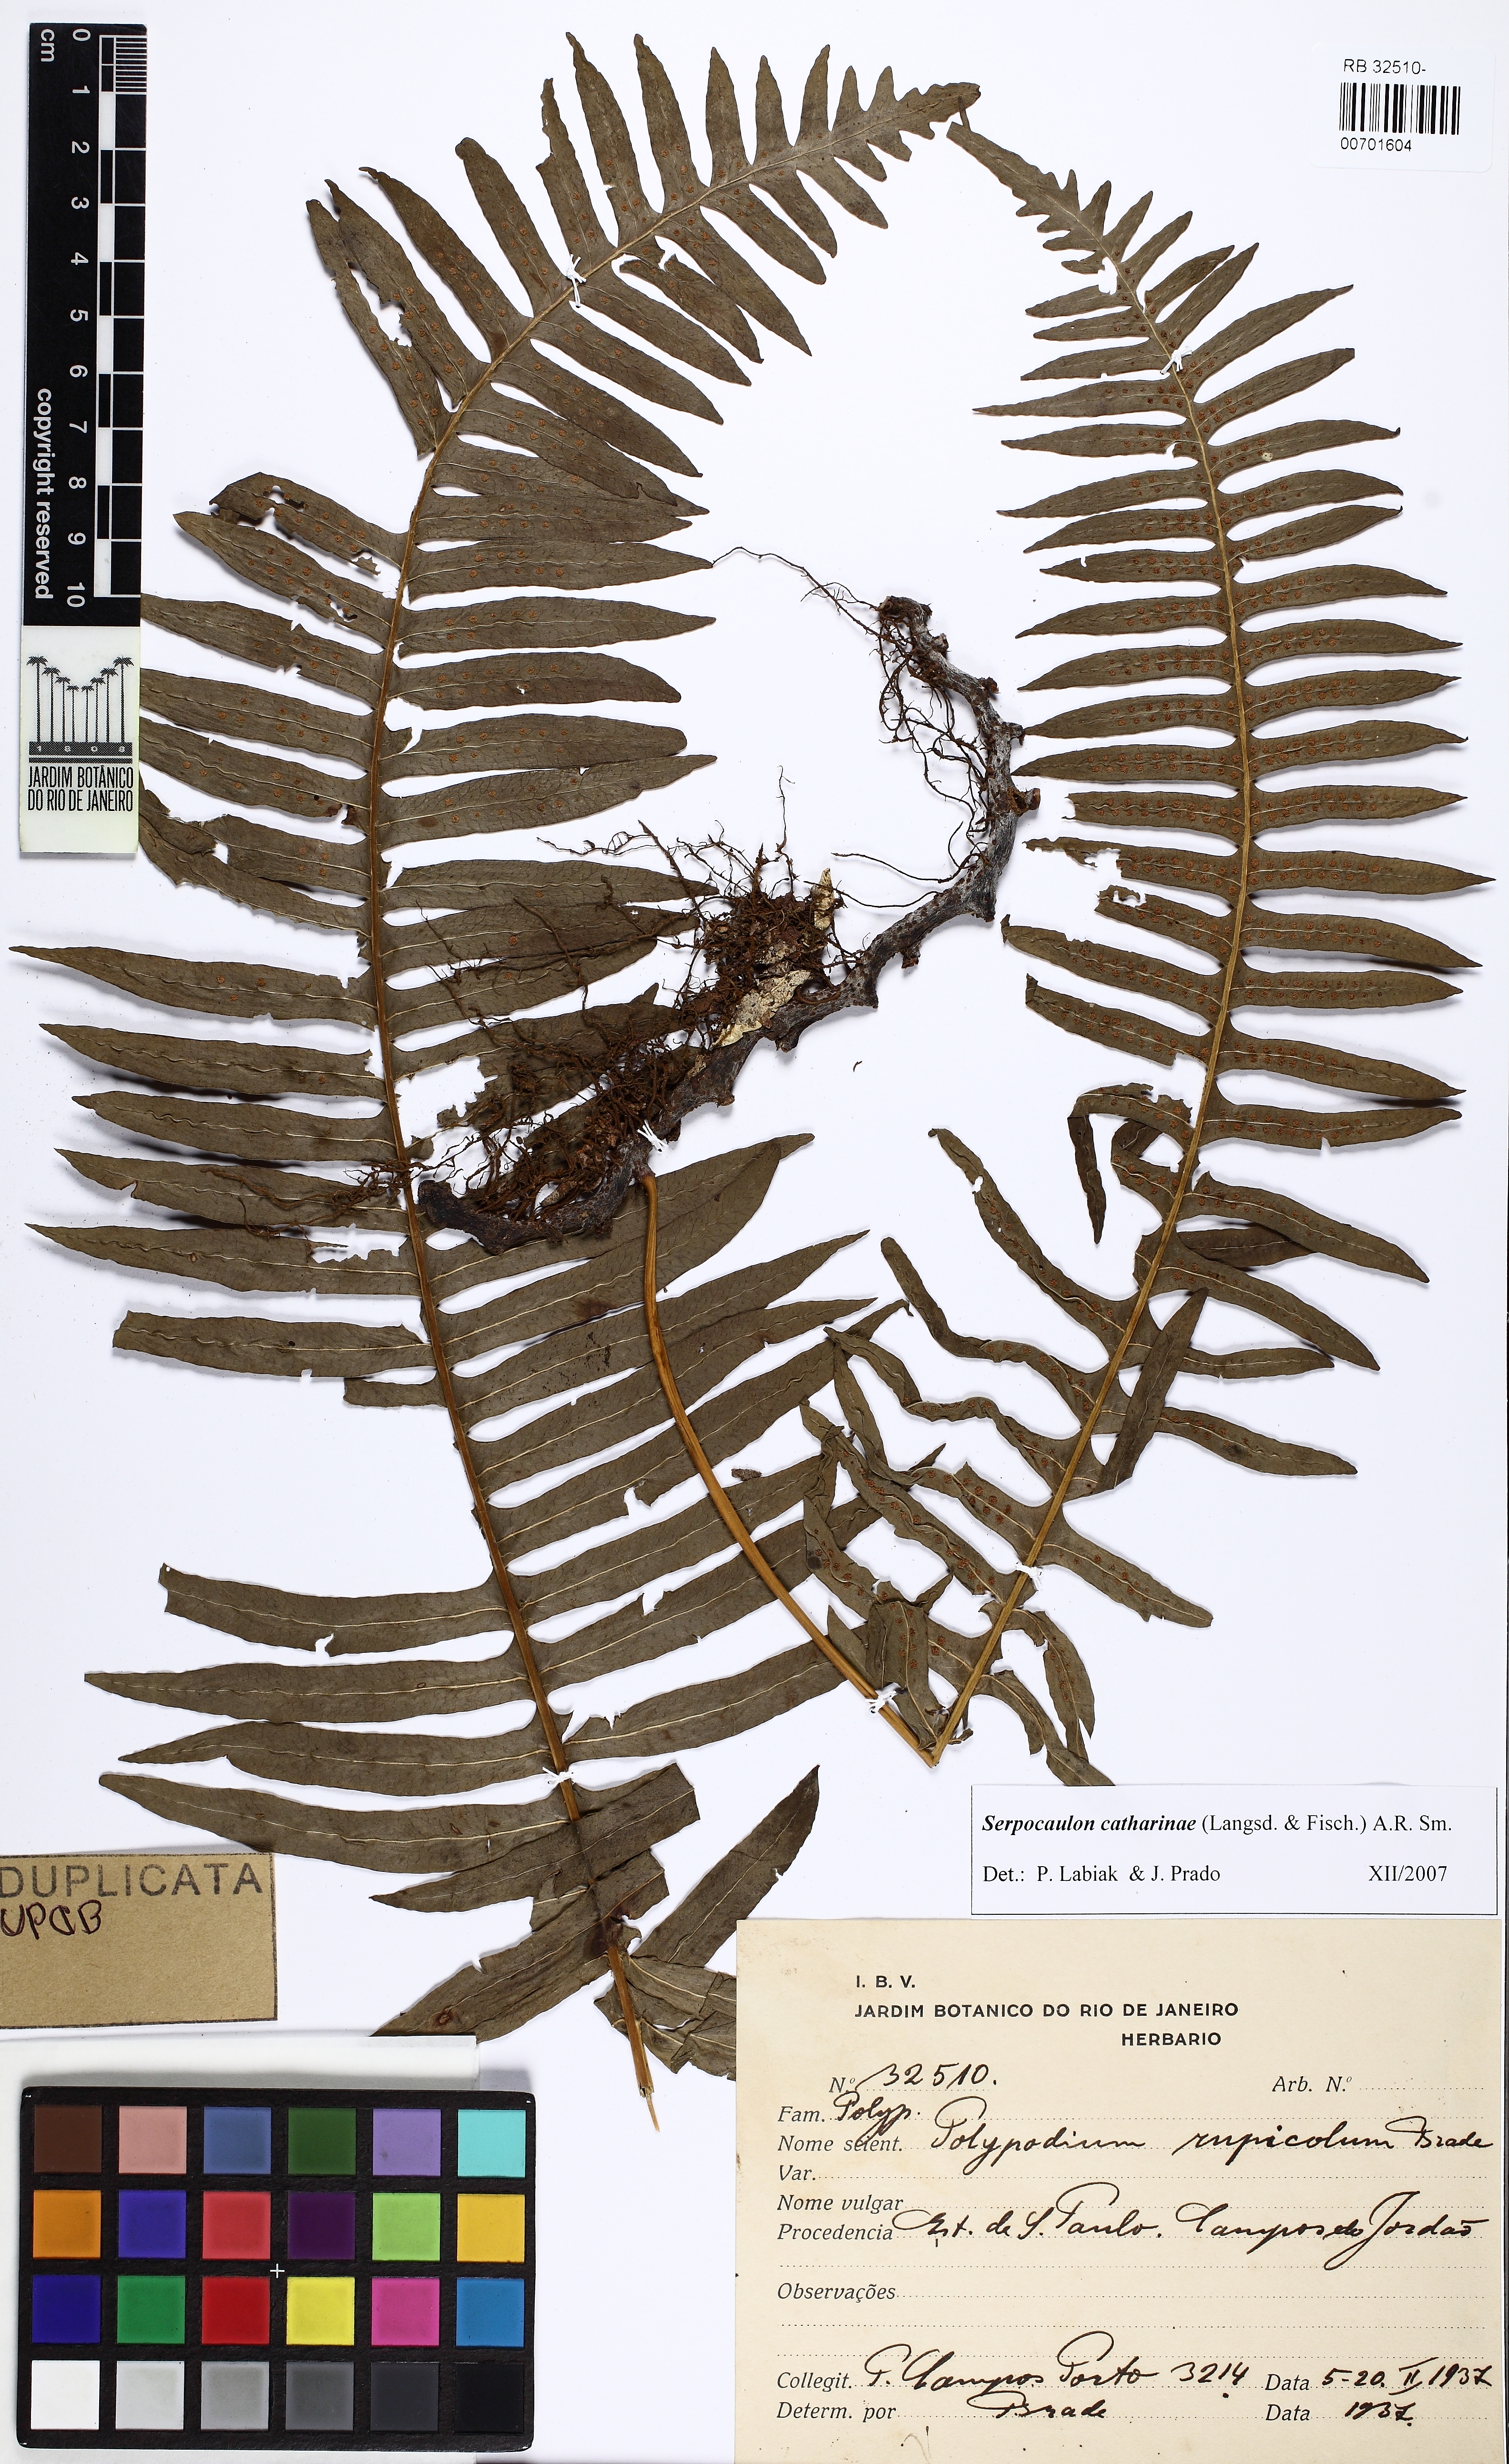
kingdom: Plantae
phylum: Tracheophyta
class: Polypodiopsida
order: Polypodiales
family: Polypodiaceae
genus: Serpocaulon
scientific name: Serpocaulon catharinae
